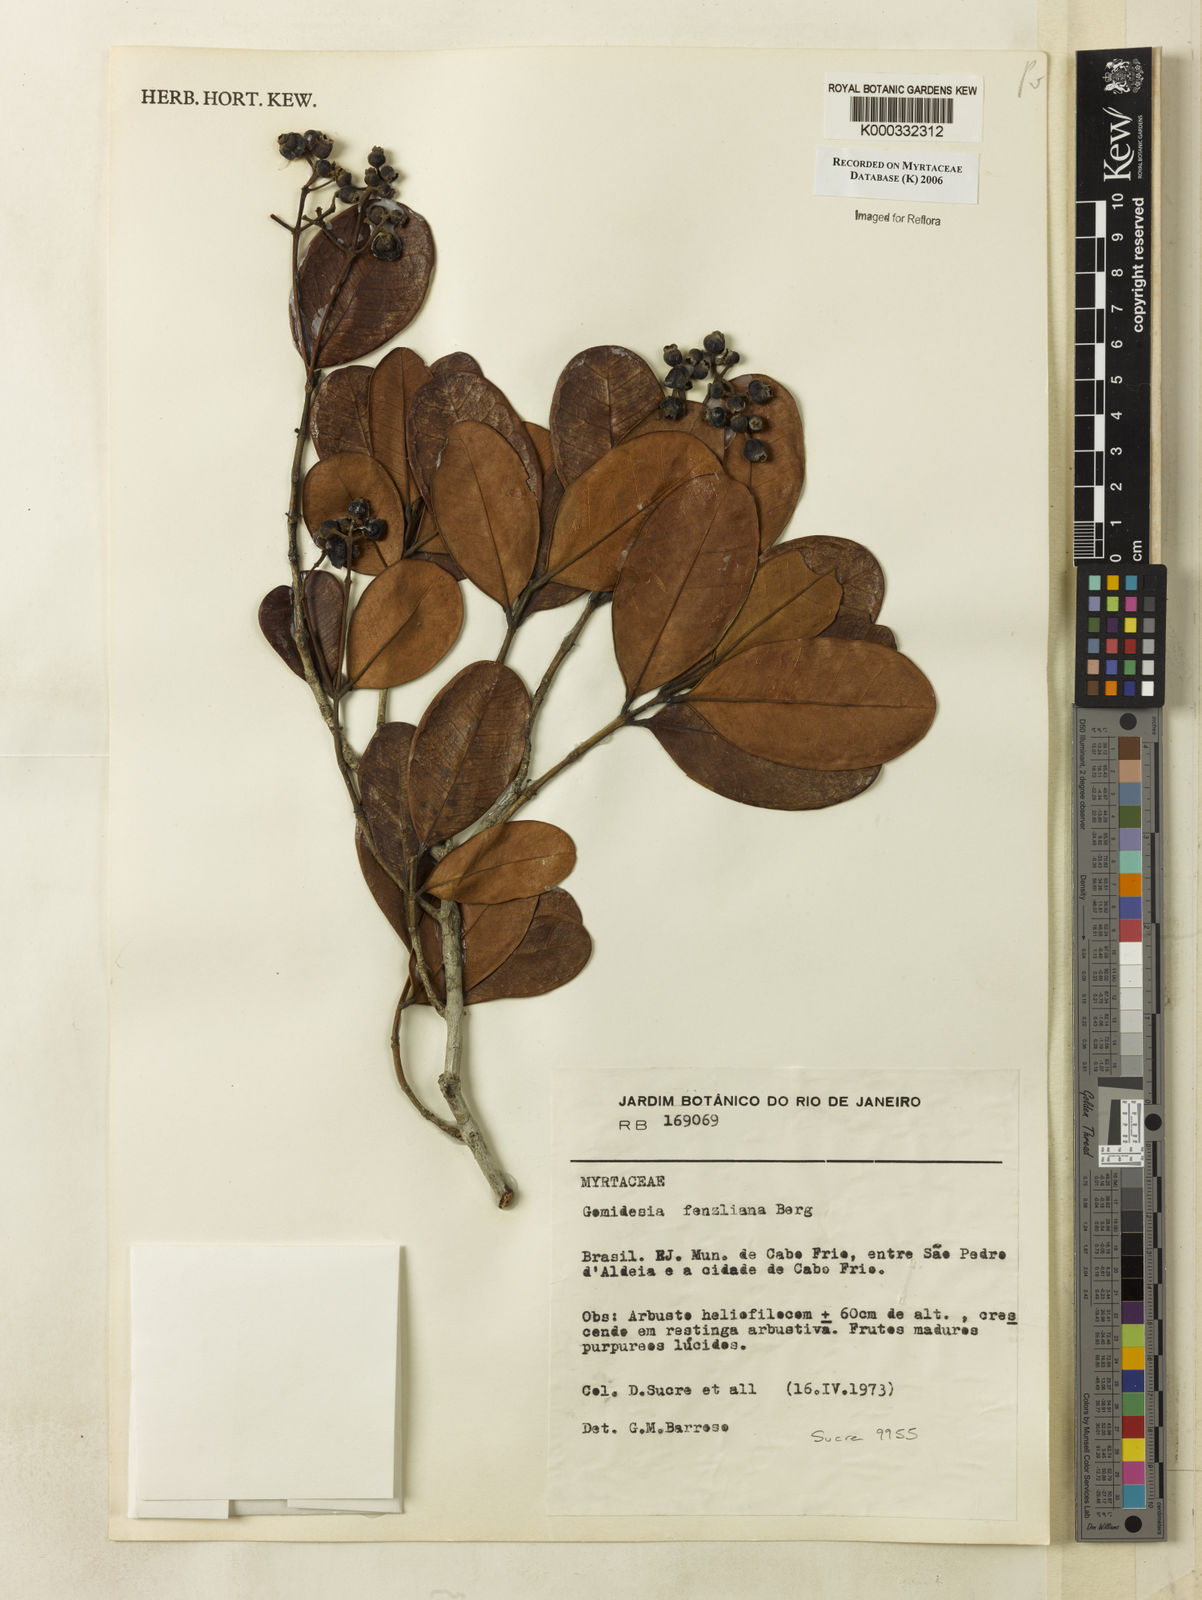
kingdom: Plantae
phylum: Tracheophyta
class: Magnoliopsida
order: Myrtales
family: Myrtaceae
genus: Myrcia
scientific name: Myrcia ilheosensis
